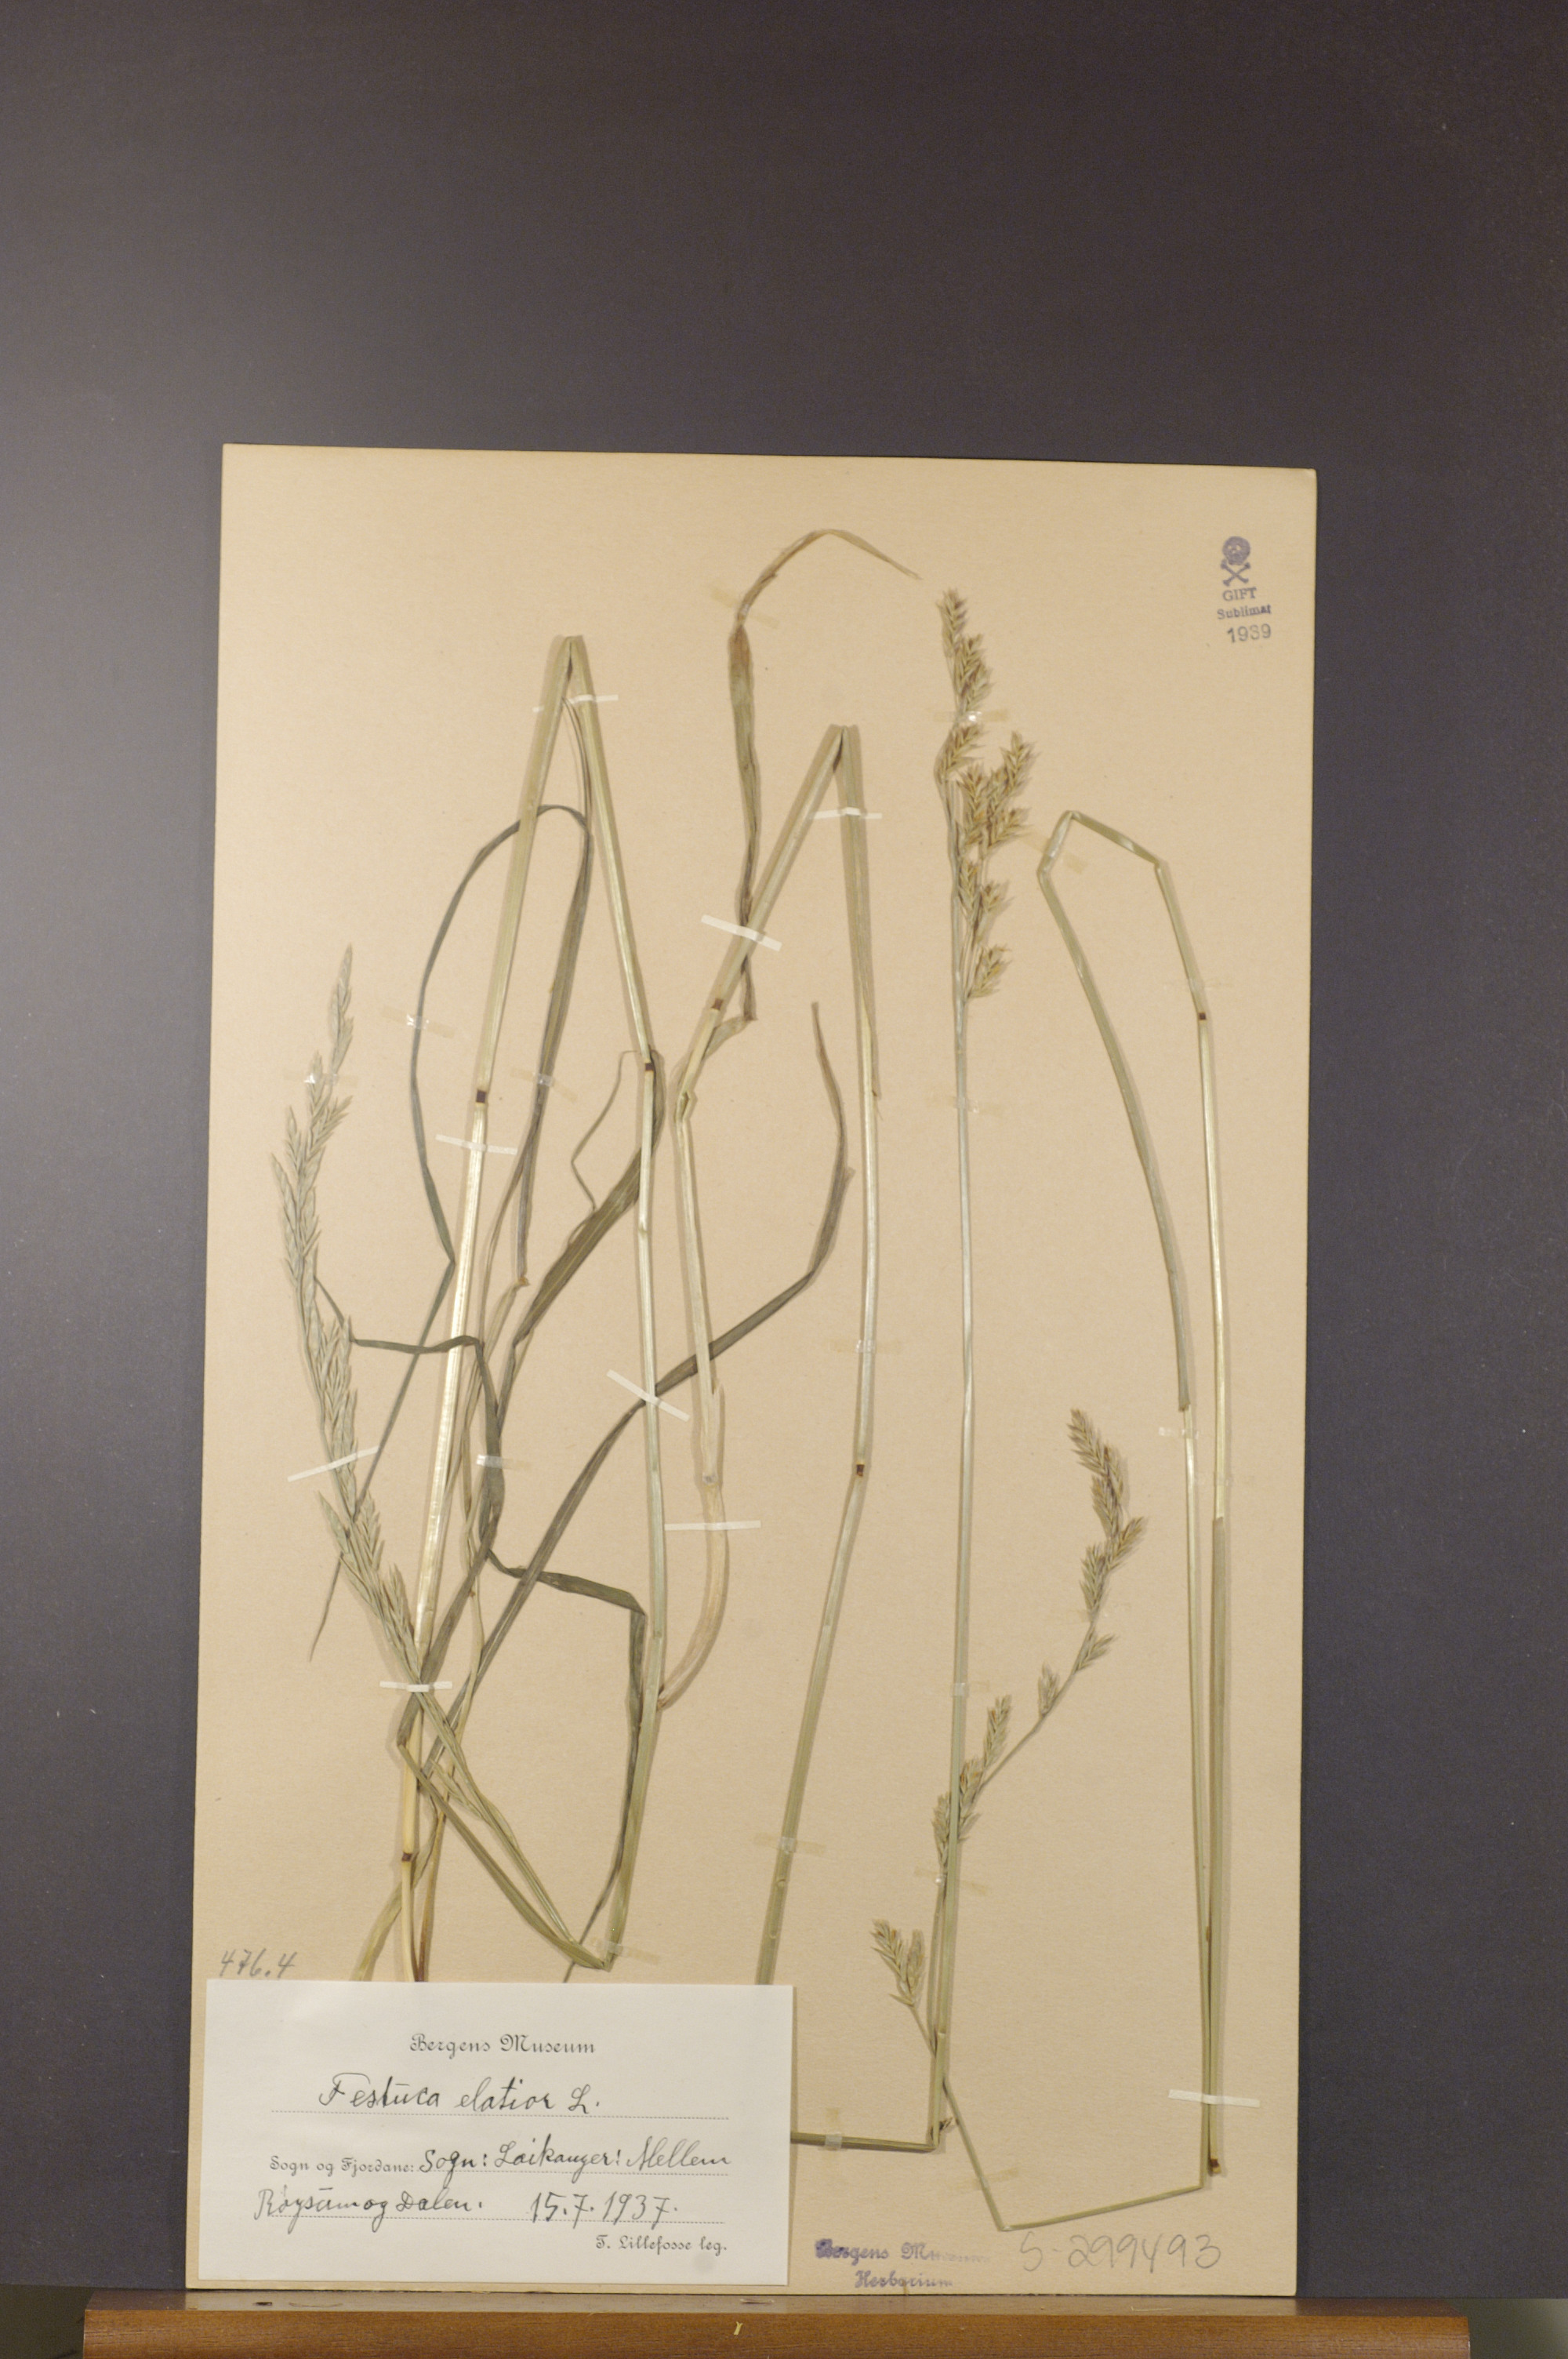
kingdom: Plantae
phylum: Tracheophyta
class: Liliopsida
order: Poales
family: Poaceae
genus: Lolium
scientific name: Lolium arundinaceum
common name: Reed fescue
